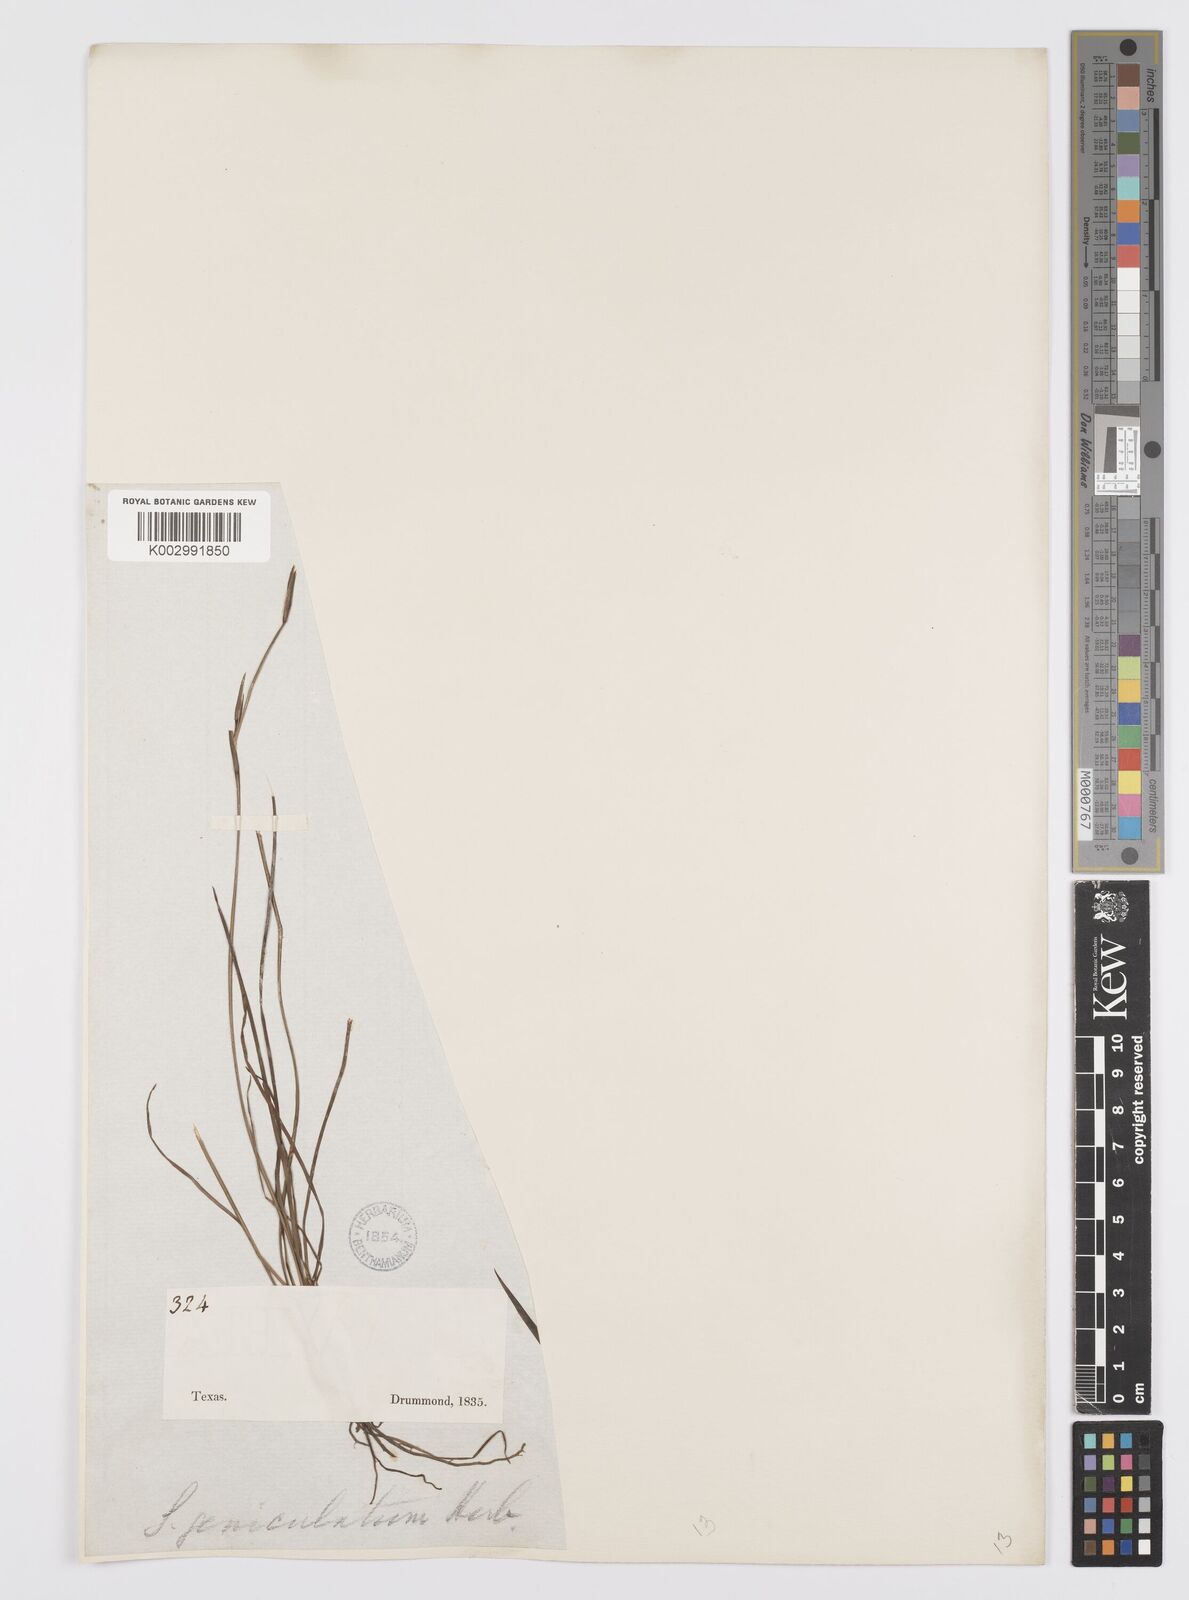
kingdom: Plantae
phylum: Tracheophyta
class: Liliopsida
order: Asparagales
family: Iridaceae
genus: Sisyrinchium
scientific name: Sisyrinchium bermudiana
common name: Blue-eyed-grass
